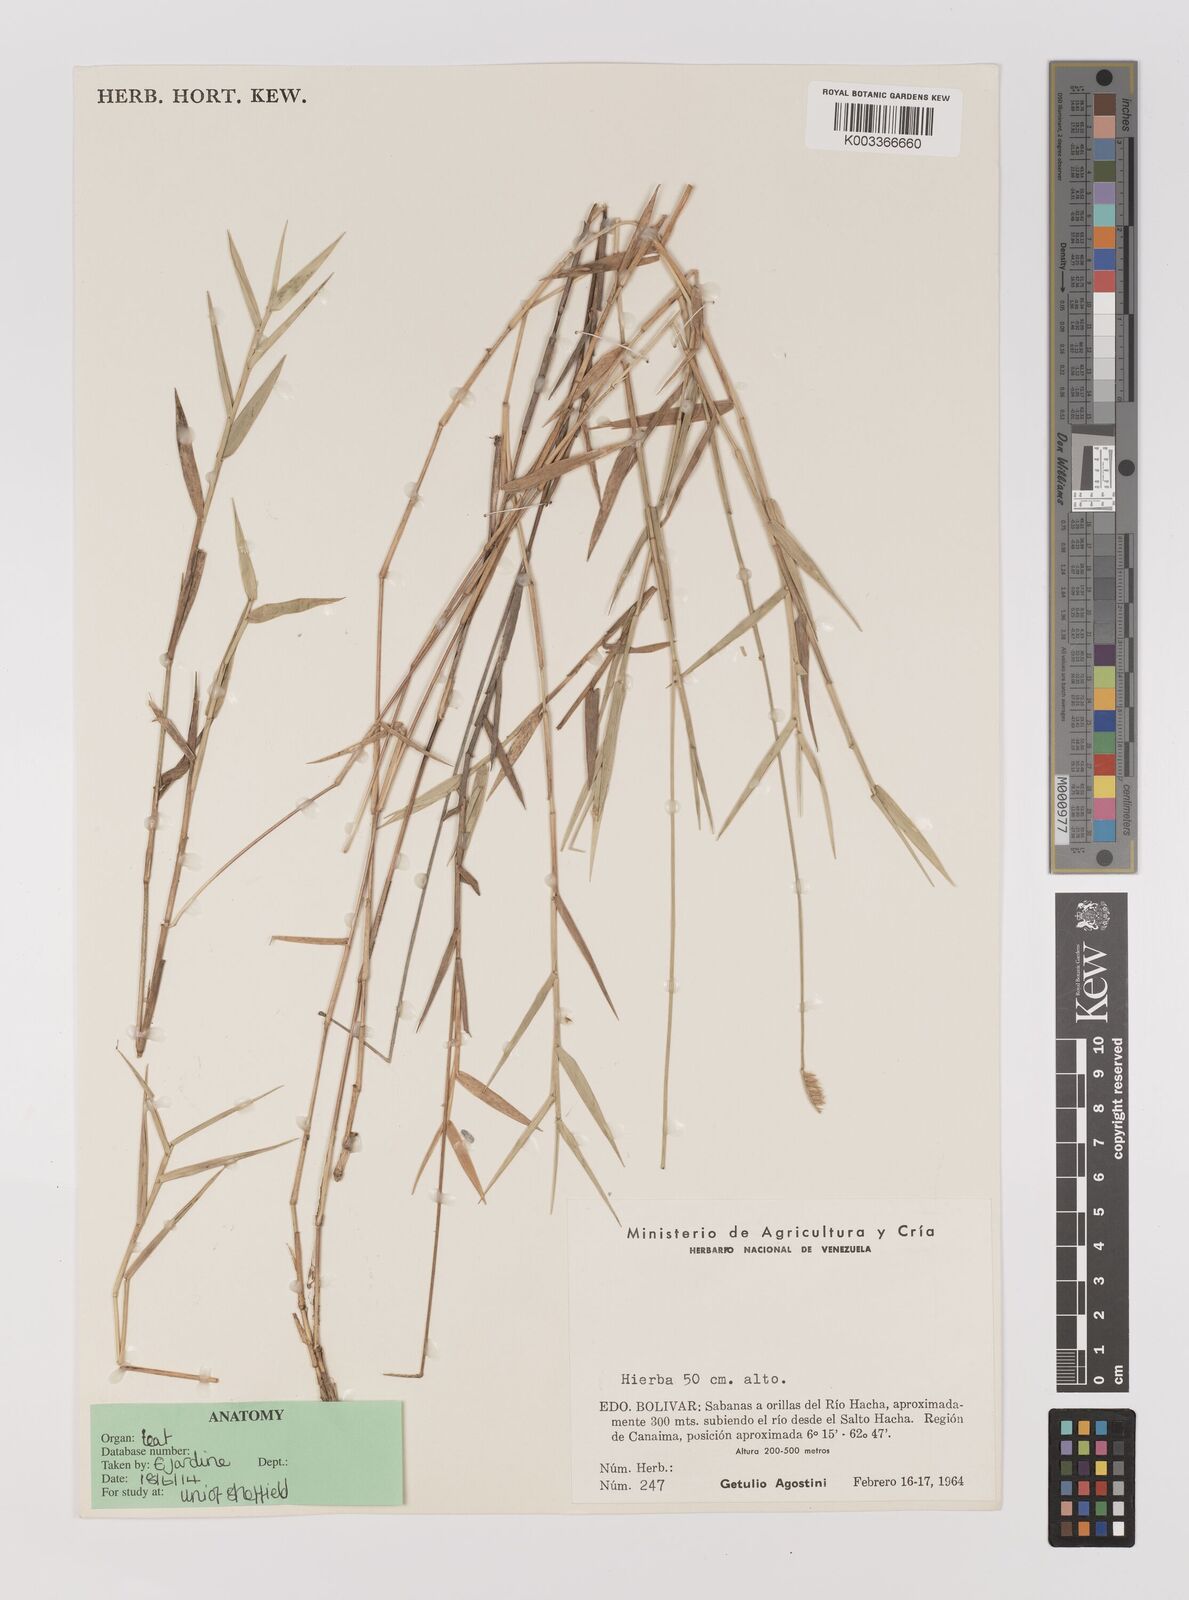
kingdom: Plantae
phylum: Tracheophyta
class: Liliopsida
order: Poales
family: Poaceae
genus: Echinolaena
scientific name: Echinolaena inflexa
